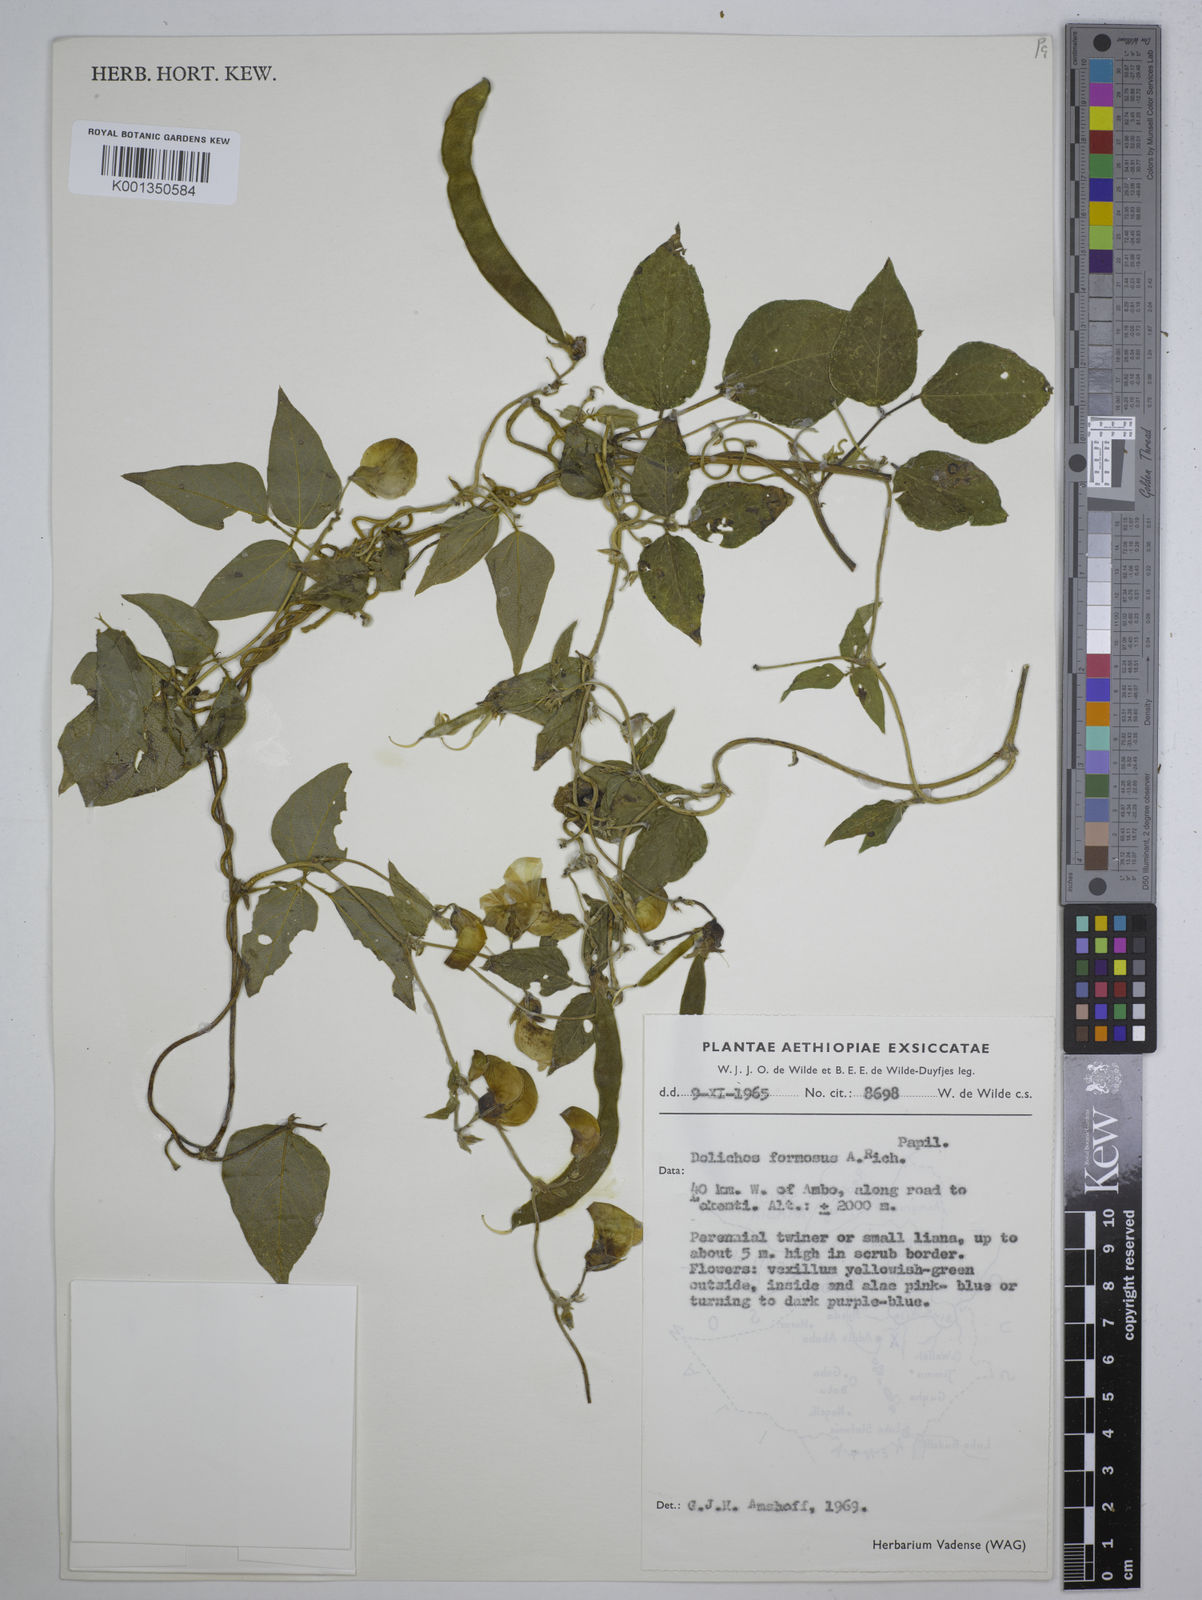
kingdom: Plantae
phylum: Tracheophyta
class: Magnoliopsida
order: Fabales
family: Fabaceae
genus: Dolichos
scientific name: Dolichos
